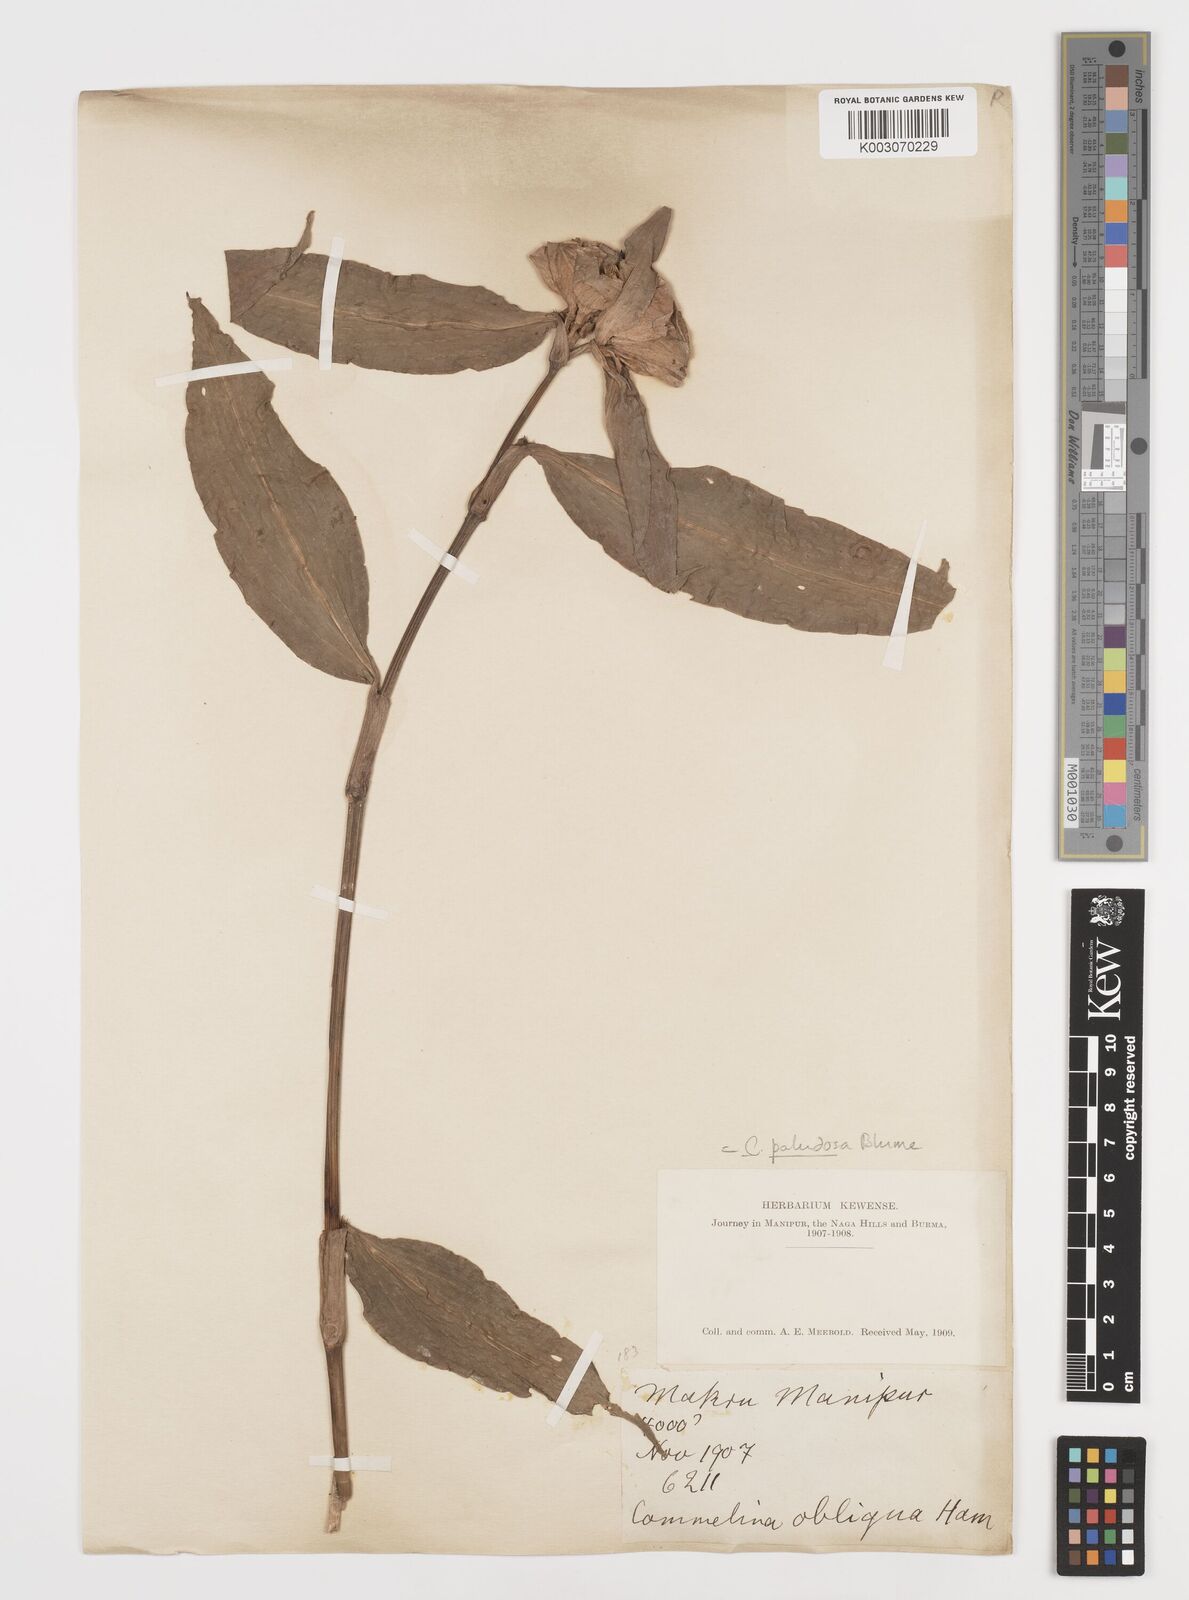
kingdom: Plantae
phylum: Tracheophyta
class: Liliopsida
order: Commelinales
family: Commelinaceae
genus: Commelina
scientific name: Commelina paludosa
